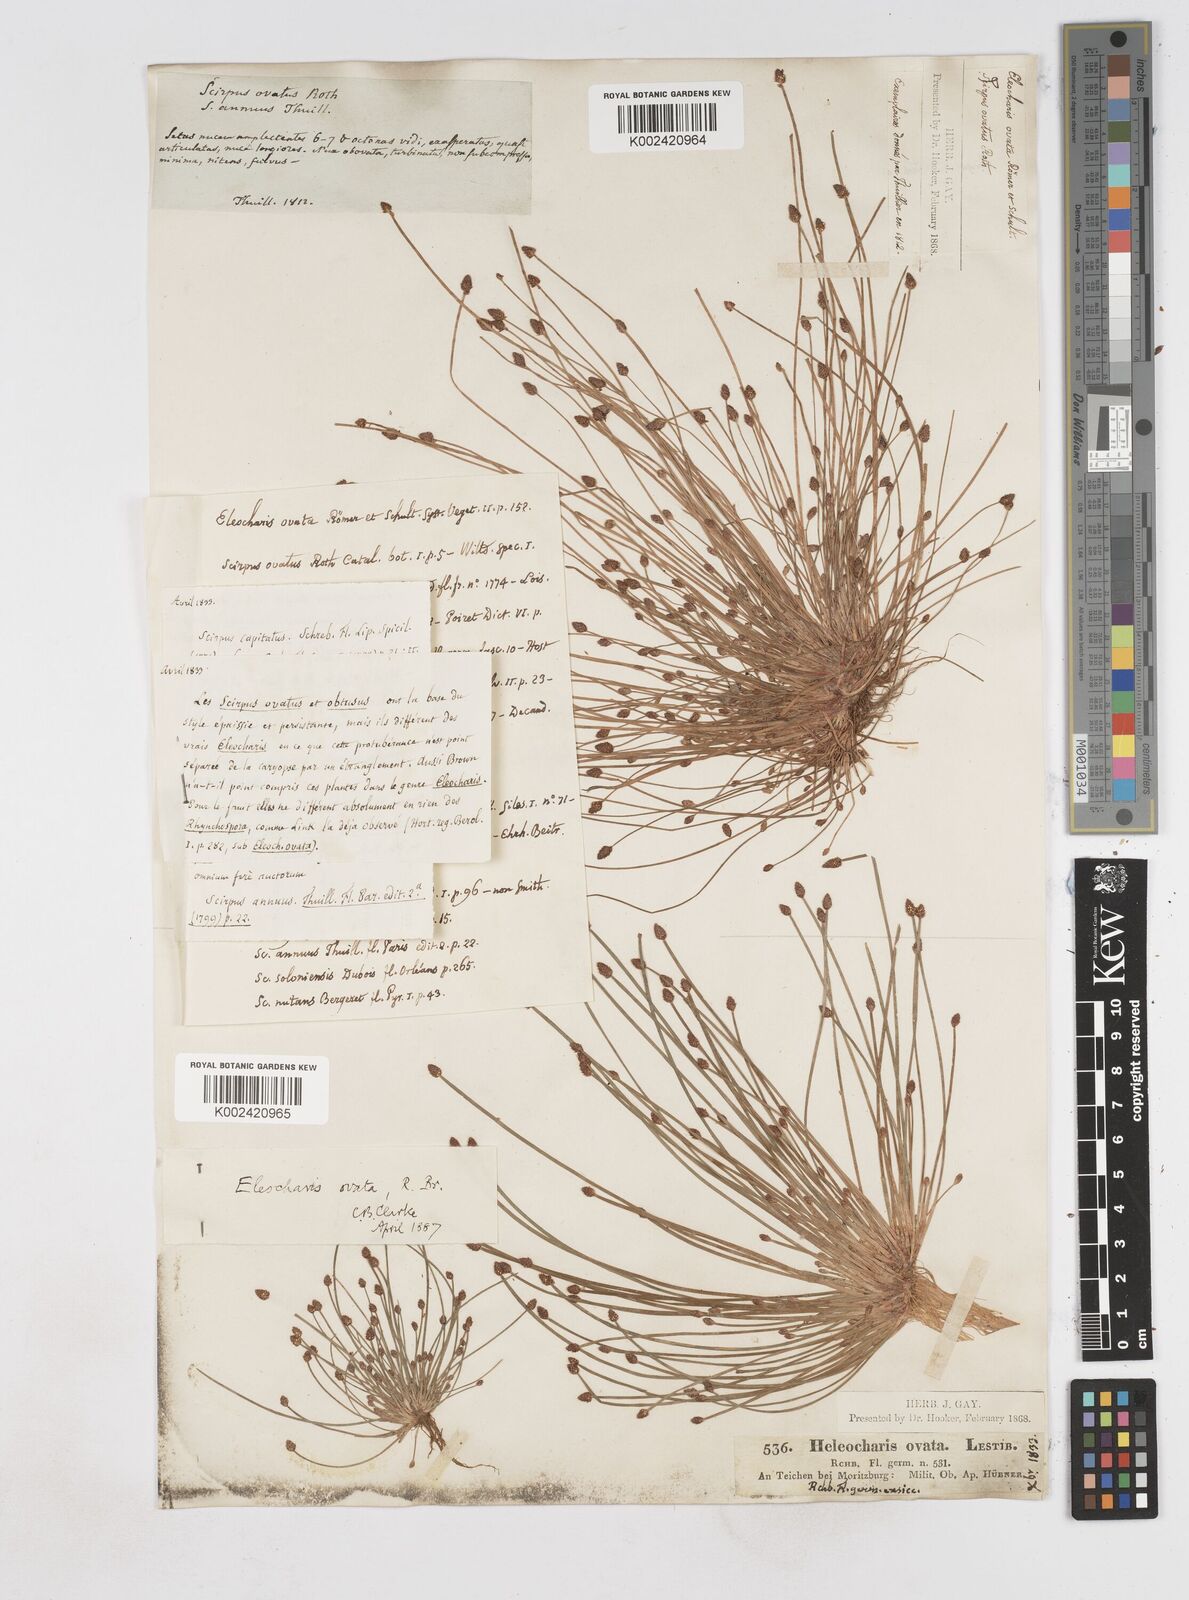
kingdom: Plantae
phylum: Tracheophyta
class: Liliopsida
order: Poales
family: Cyperaceae
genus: Eleocharis
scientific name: Eleocharis ovata
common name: Oval spike-rush
